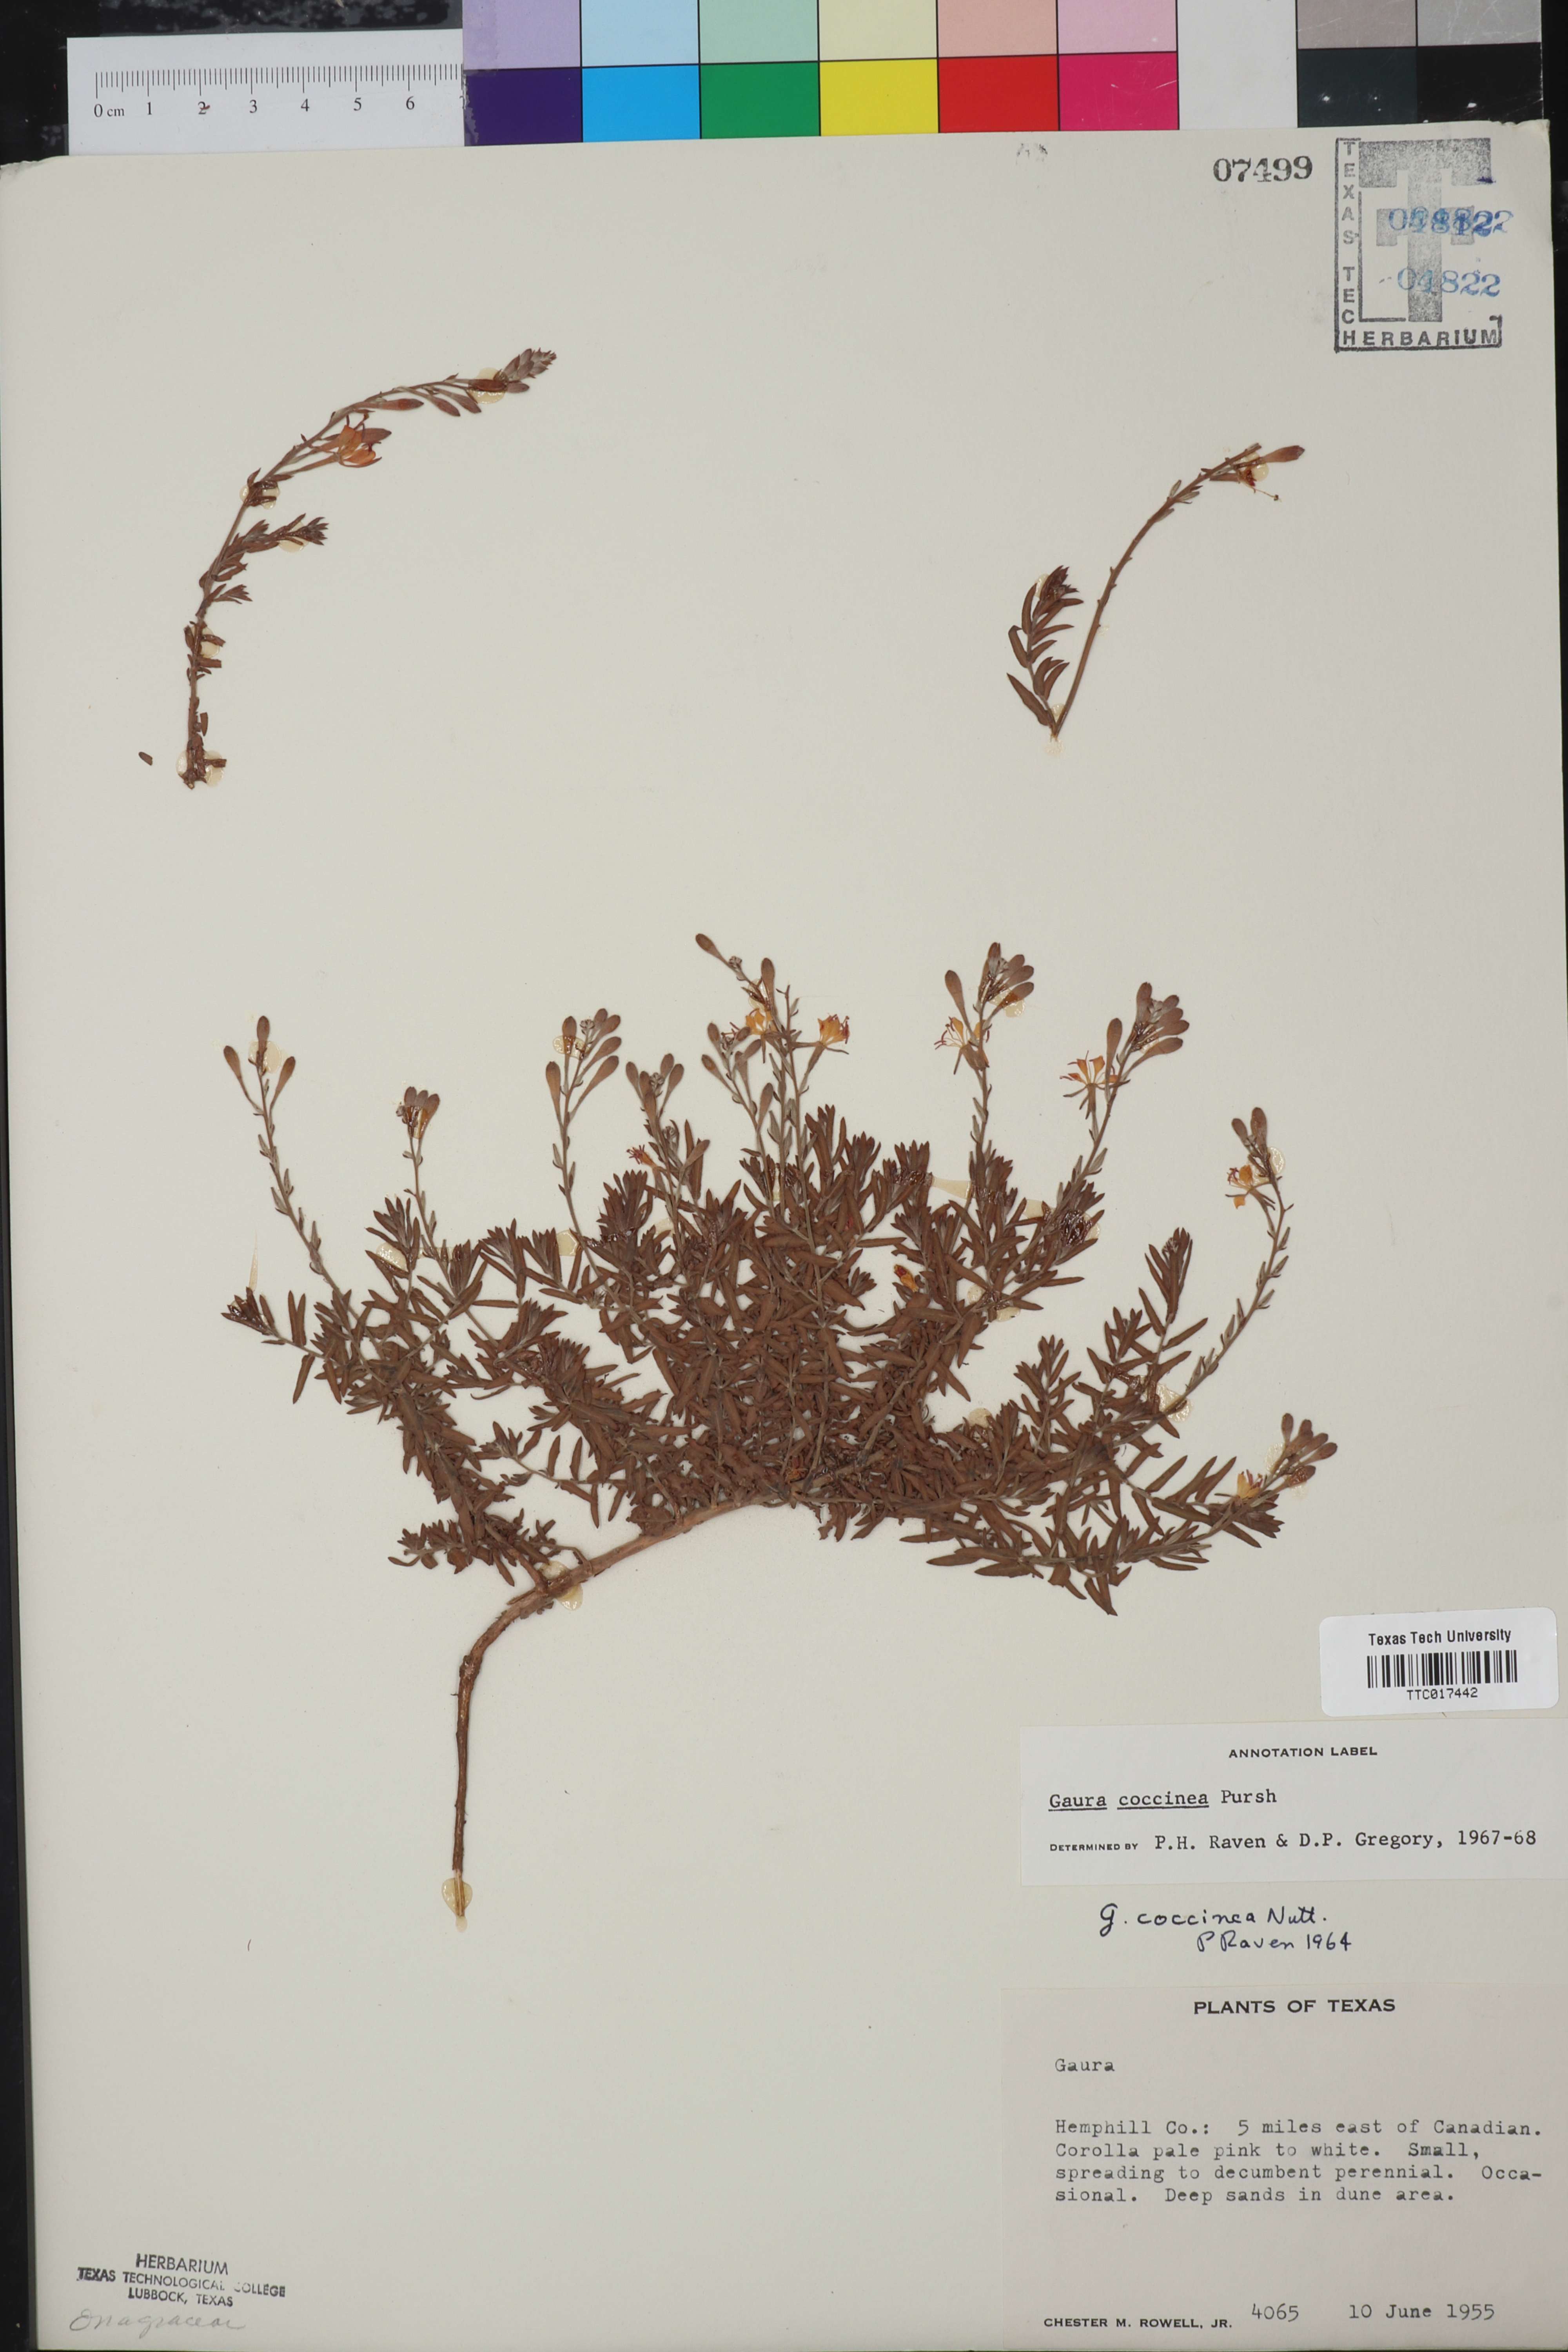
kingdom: Plantae
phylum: Tracheophyta
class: Magnoliopsida
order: Myrtales
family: Onagraceae
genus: Oenothera
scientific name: Oenothera suffrutescens
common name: Scarlet beeblossom
